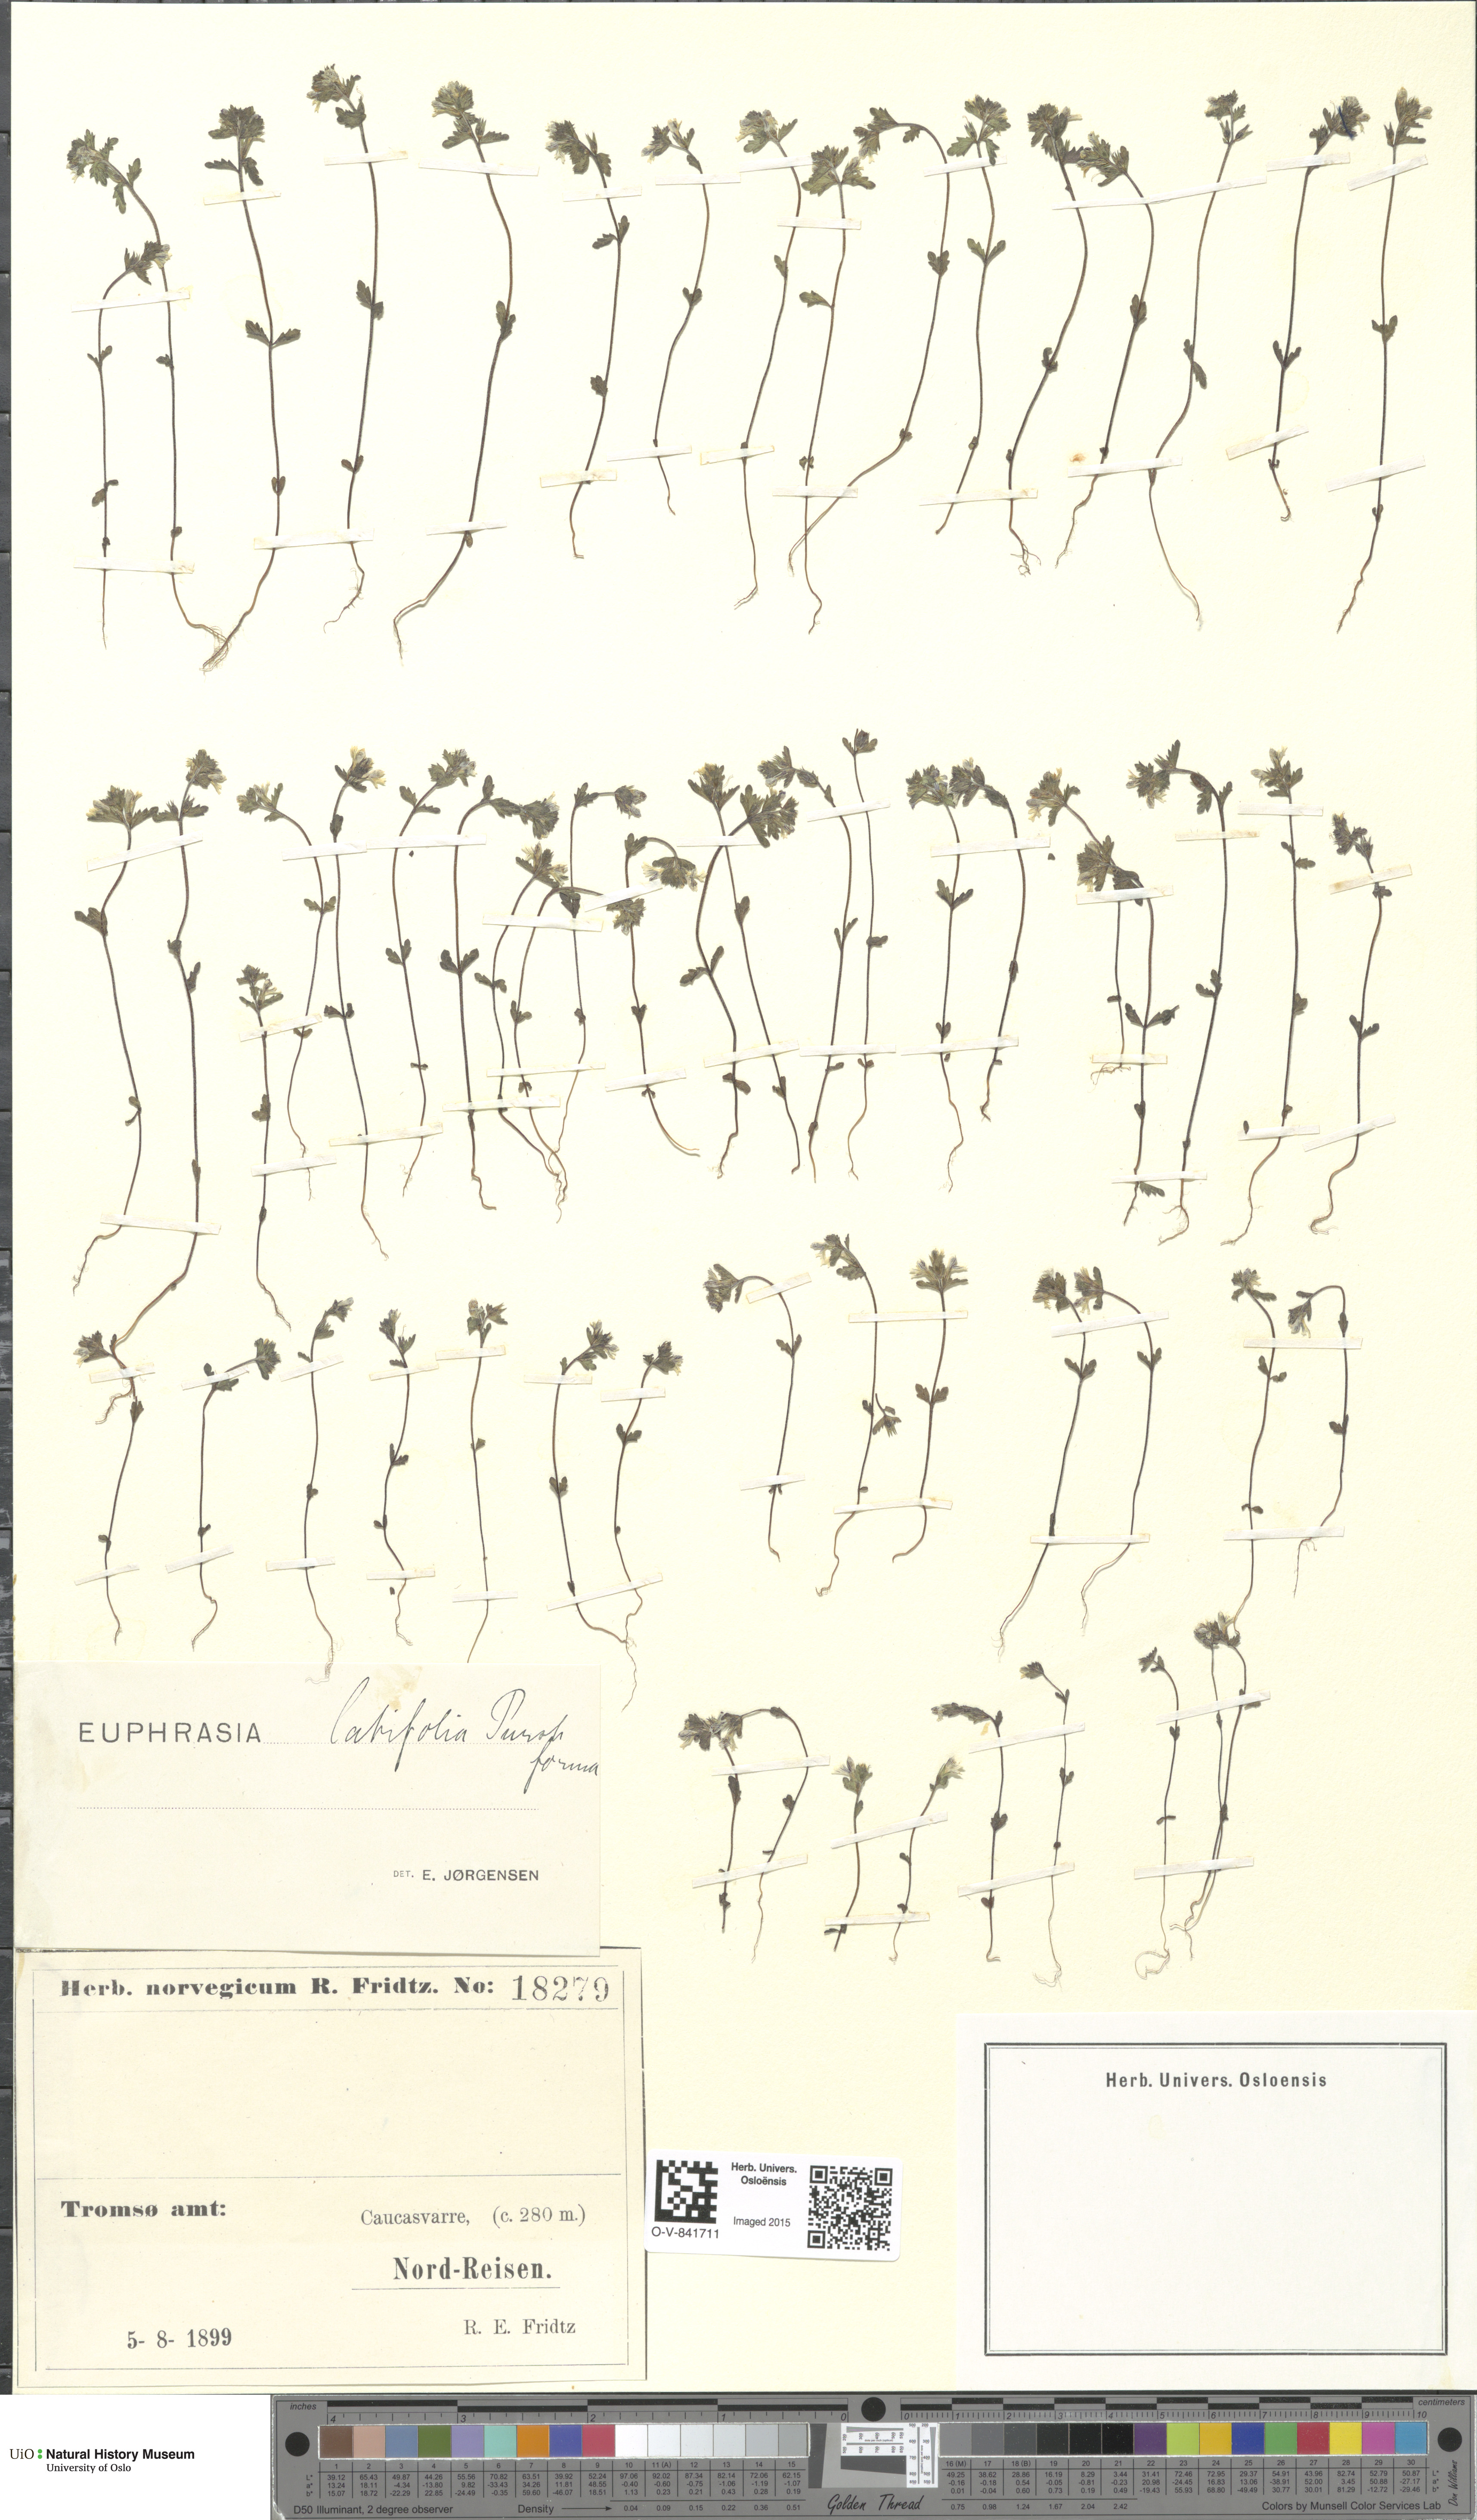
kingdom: Plantae
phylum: Tracheophyta
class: Magnoliopsida
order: Lamiales
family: Orobanchaceae
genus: Euphrasia
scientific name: Euphrasia wettsteinii
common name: Wettstein's eyebright
